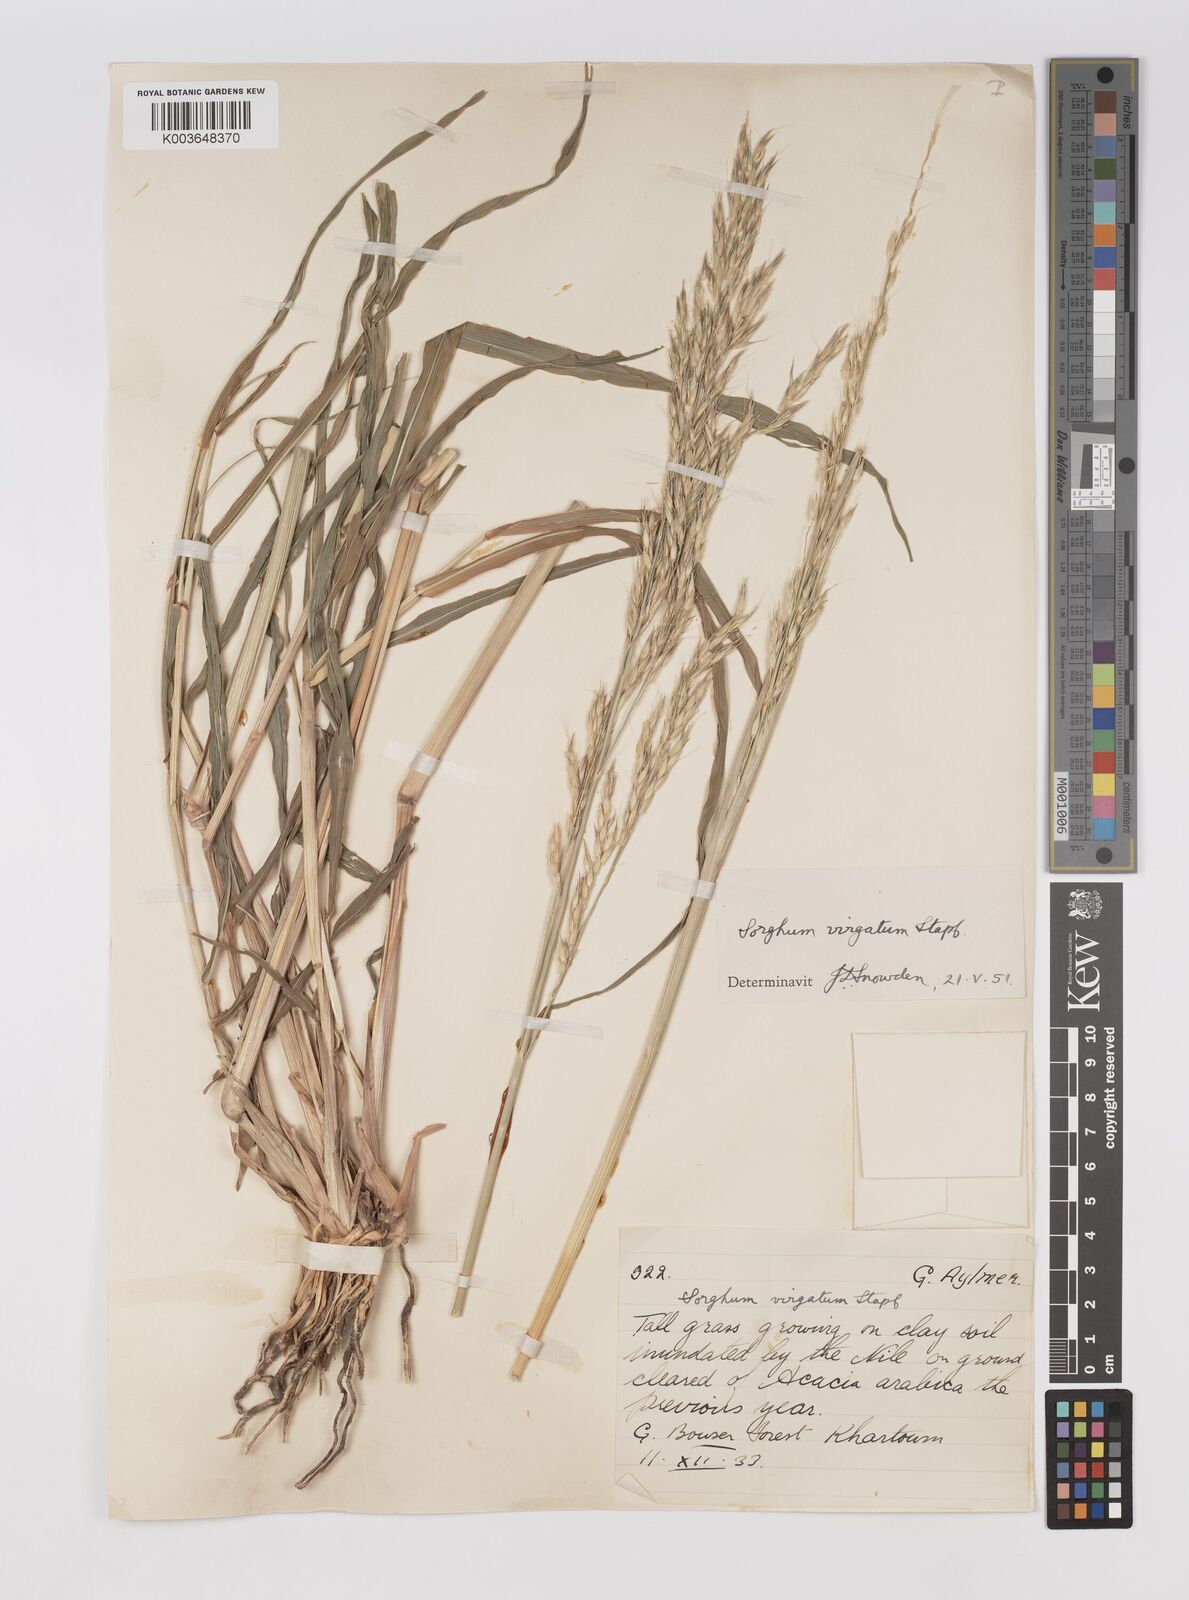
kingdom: Plantae
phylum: Tracheophyta
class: Liliopsida
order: Poales
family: Poaceae
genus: Sorghum
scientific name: Sorghum virgatum
